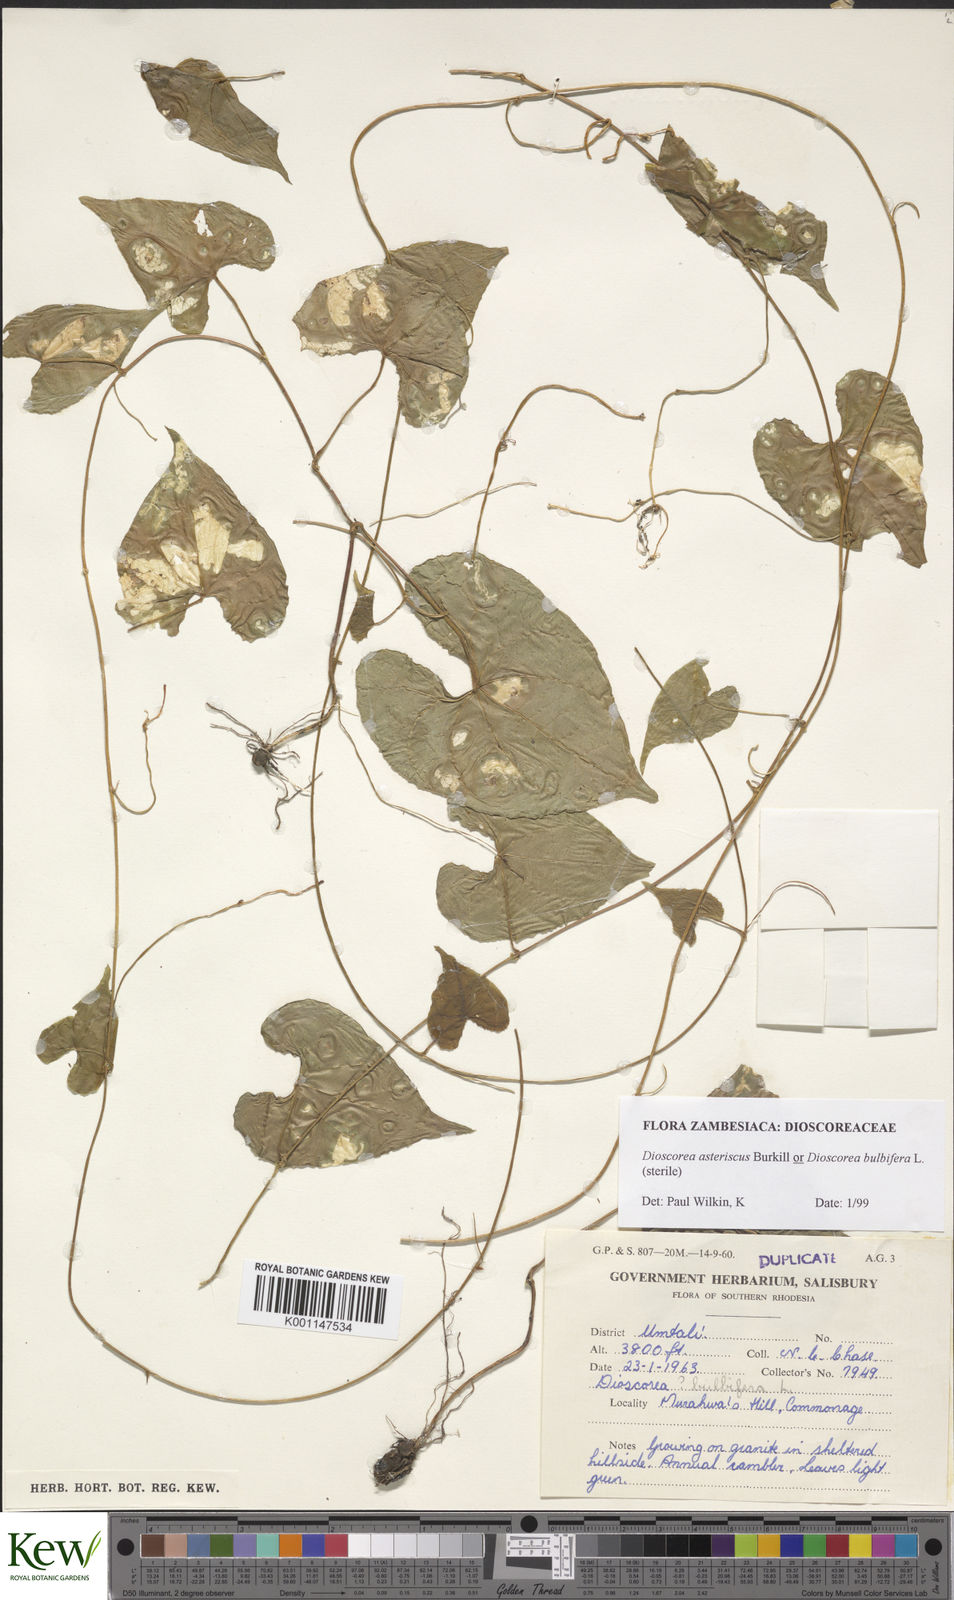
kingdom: Plantae
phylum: Tracheophyta
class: Liliopsida
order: Dioscoreales
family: Dioscoreaceae
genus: Dioscorea
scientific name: Dioscorea bulbifera
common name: Air yam
